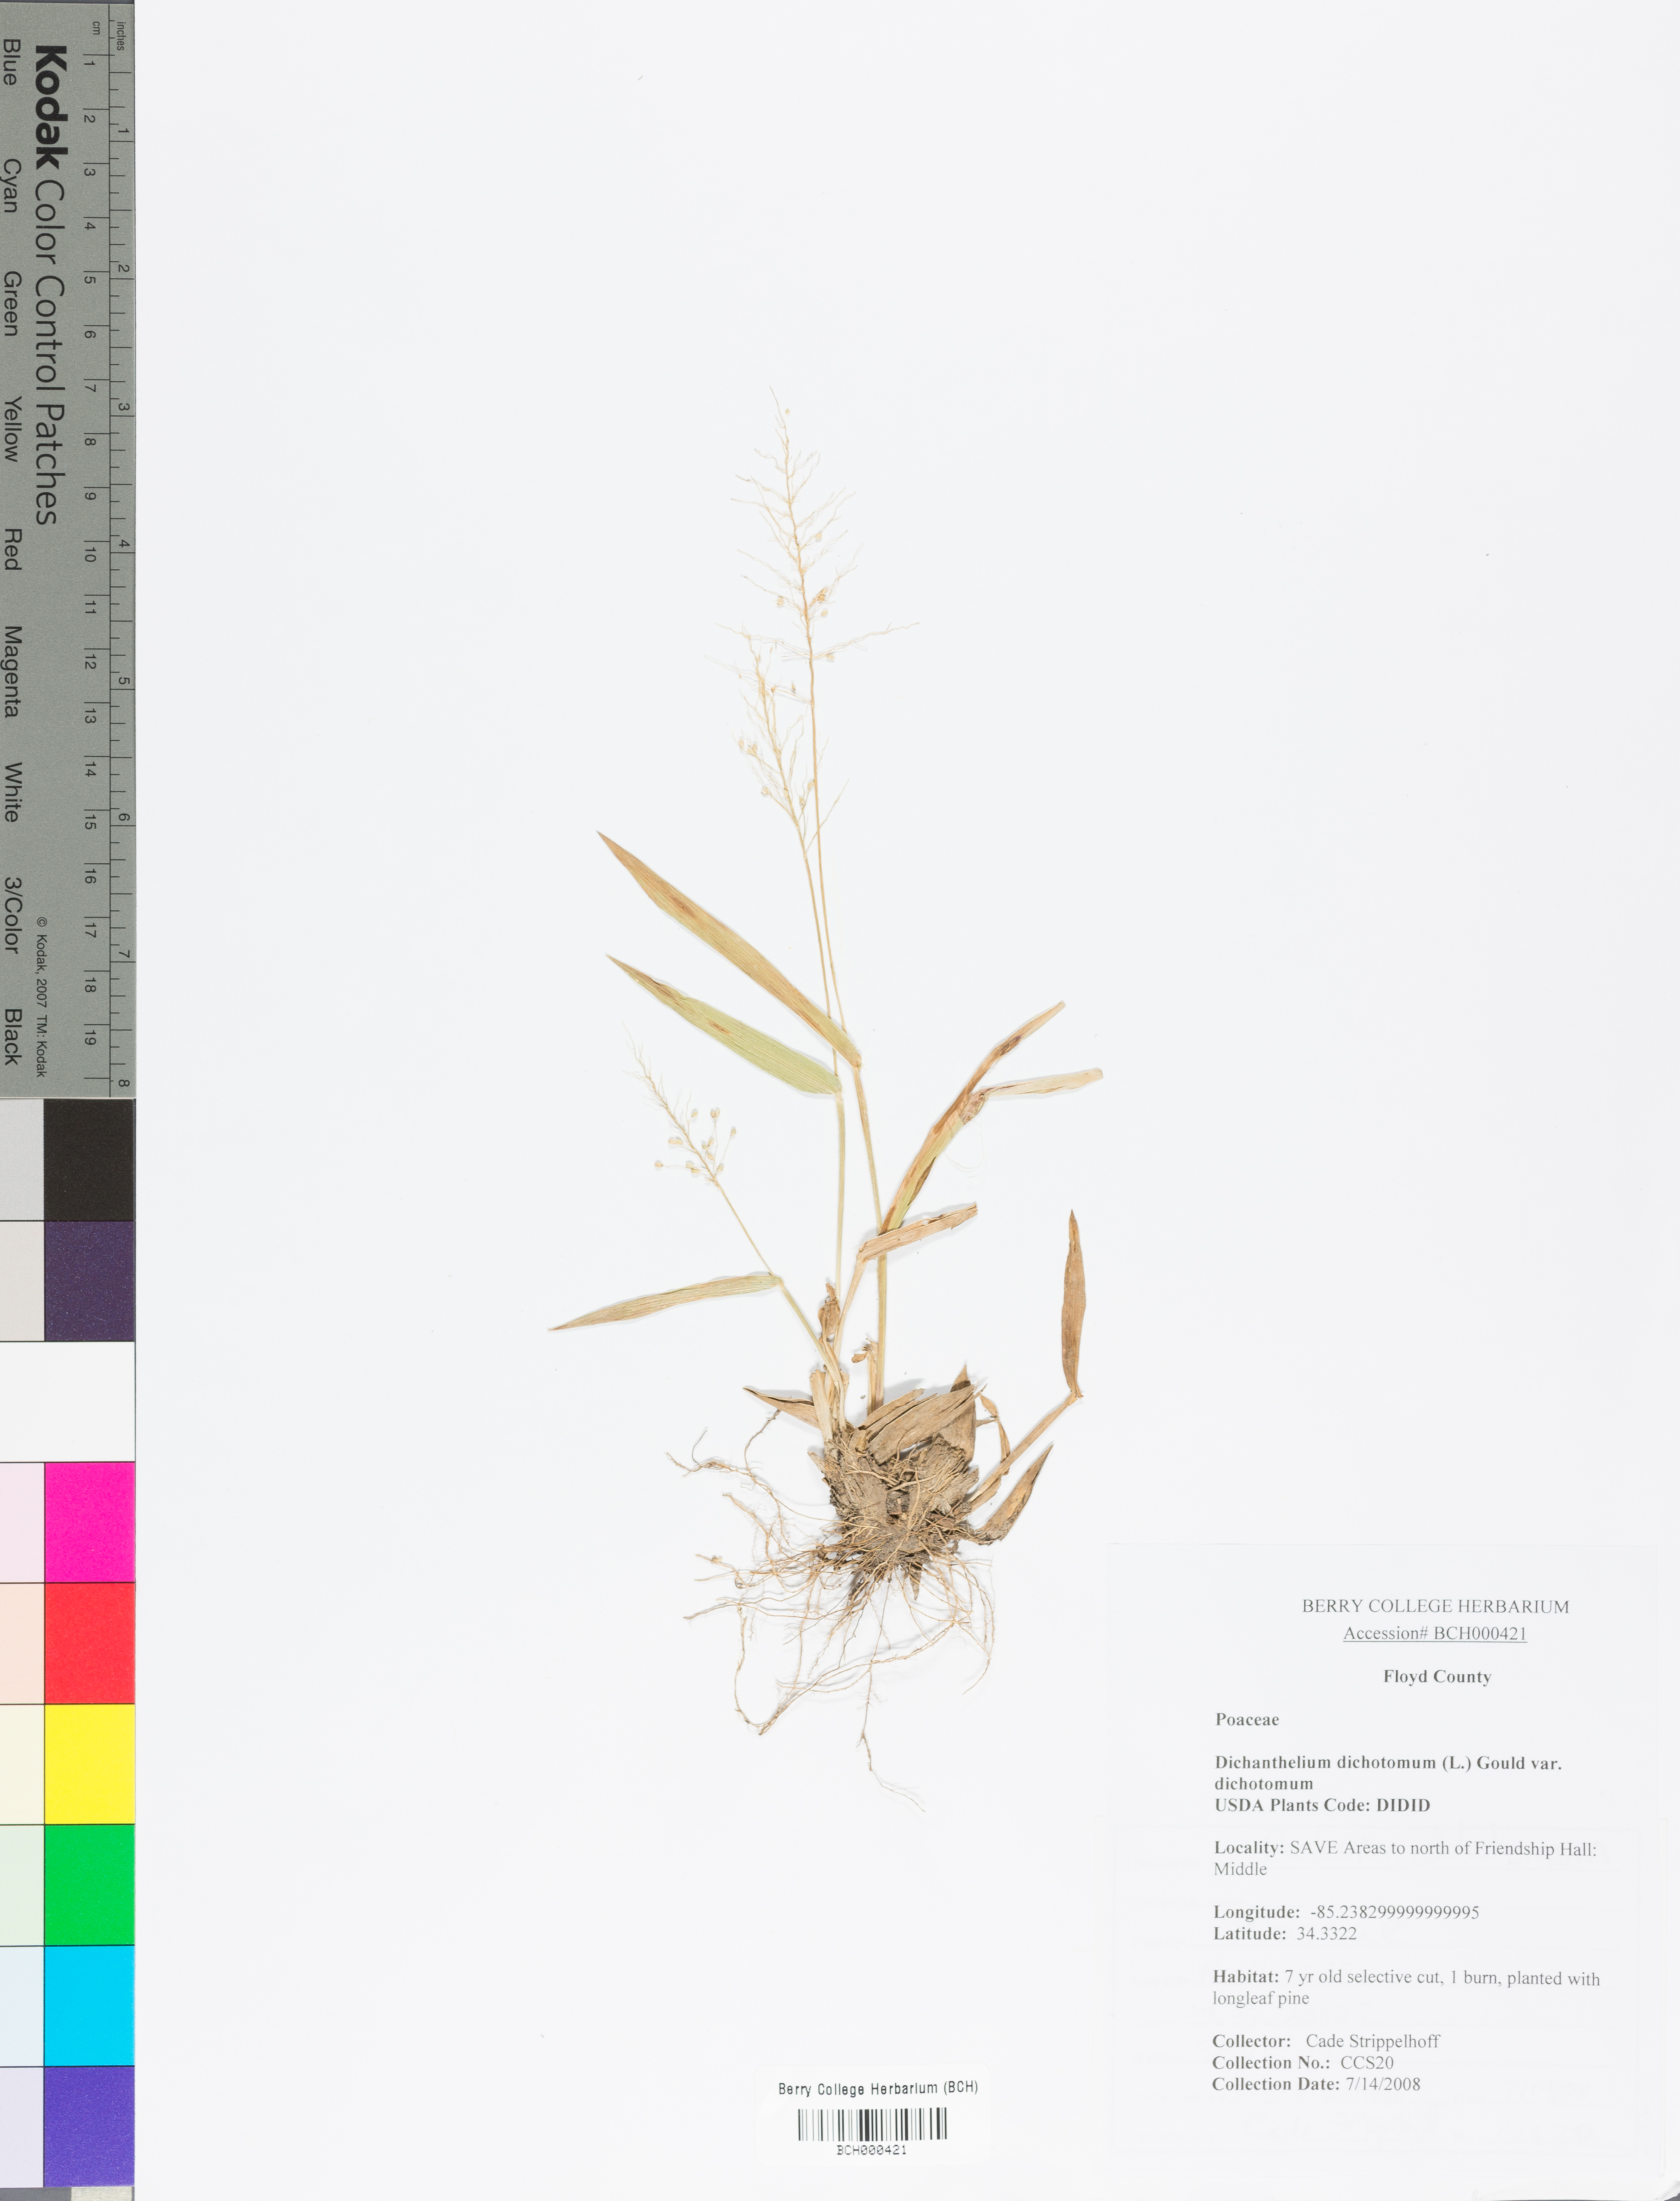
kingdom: Plantae
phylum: Tracheophyta
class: Liliopsida
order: Poales
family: Poaceae
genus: Dichanthelium
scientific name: Dichanthelium dichotomum
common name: Cypress panicgrass
